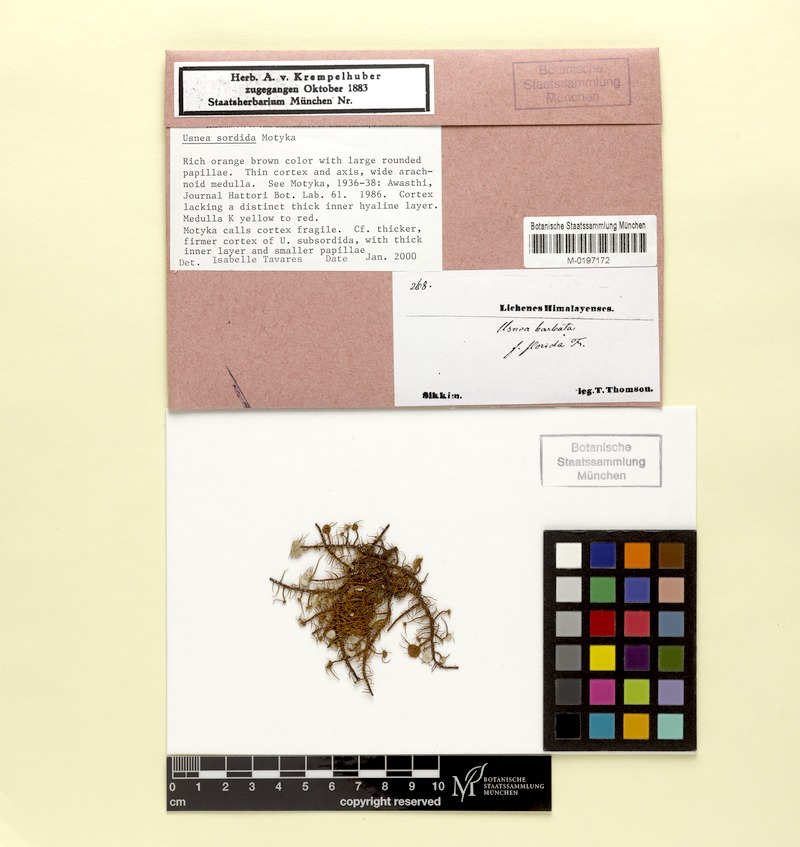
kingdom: Fungi
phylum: Ascomycota
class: Lecanoromycetes
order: Lecanorales
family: Parmeliaceae
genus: Usnea
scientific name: Usnea
